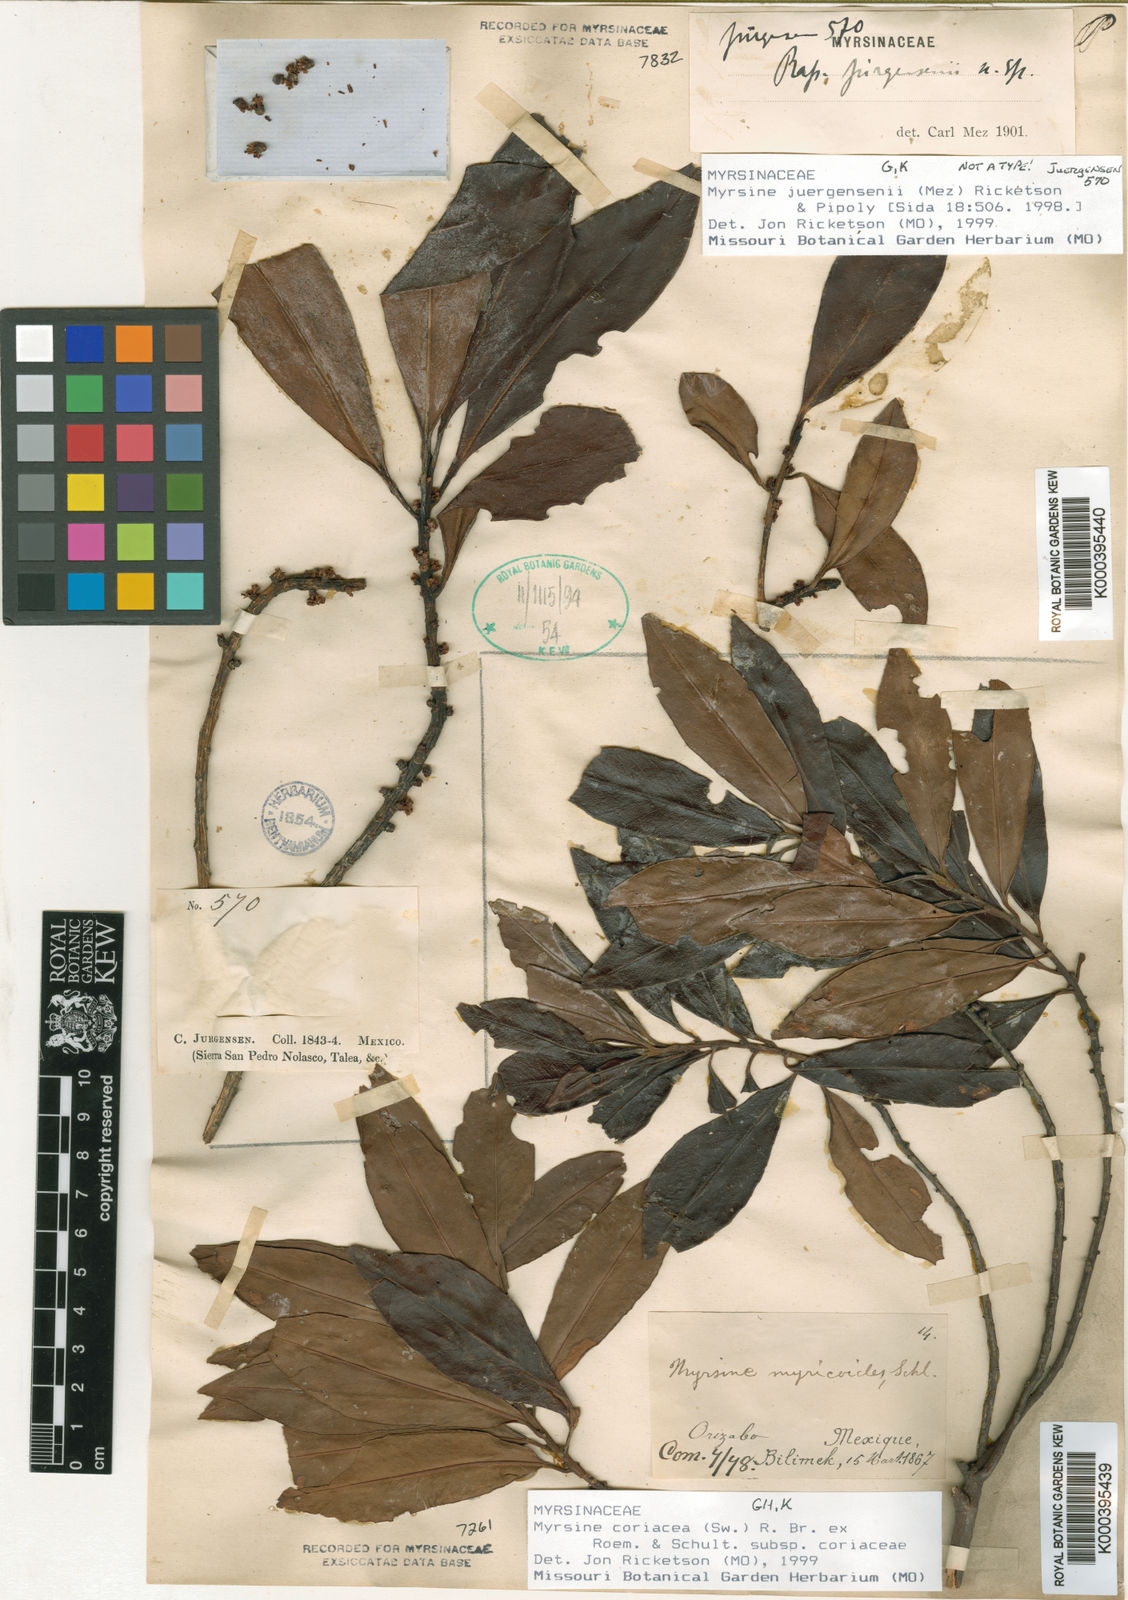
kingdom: Plantae
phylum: Tracheophyta
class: Magnoliopsida
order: Ericales
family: Primulaceae
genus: Myrsine
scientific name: Myrsine
